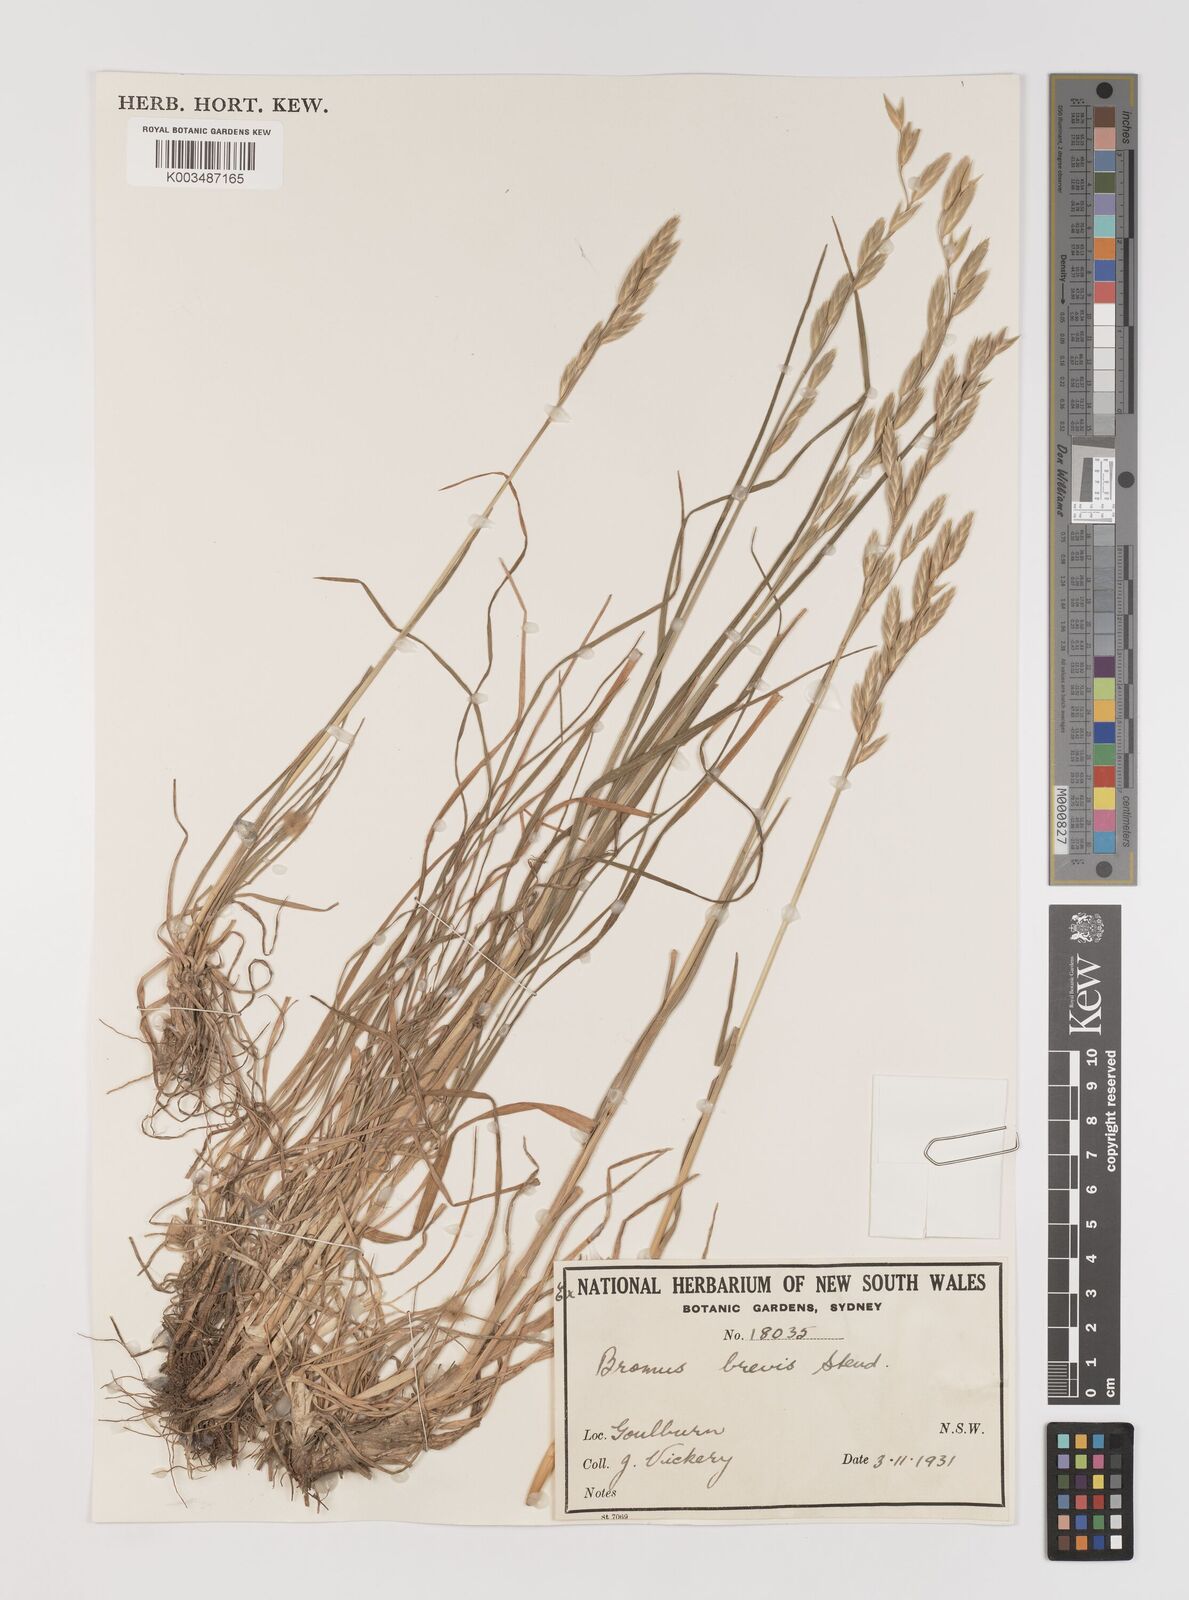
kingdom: Plantae
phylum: Tracheophyta
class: Liliopsida
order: Poales
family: Poaceae
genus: Bromus
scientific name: Bromus catharticus
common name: Rescuegrass
